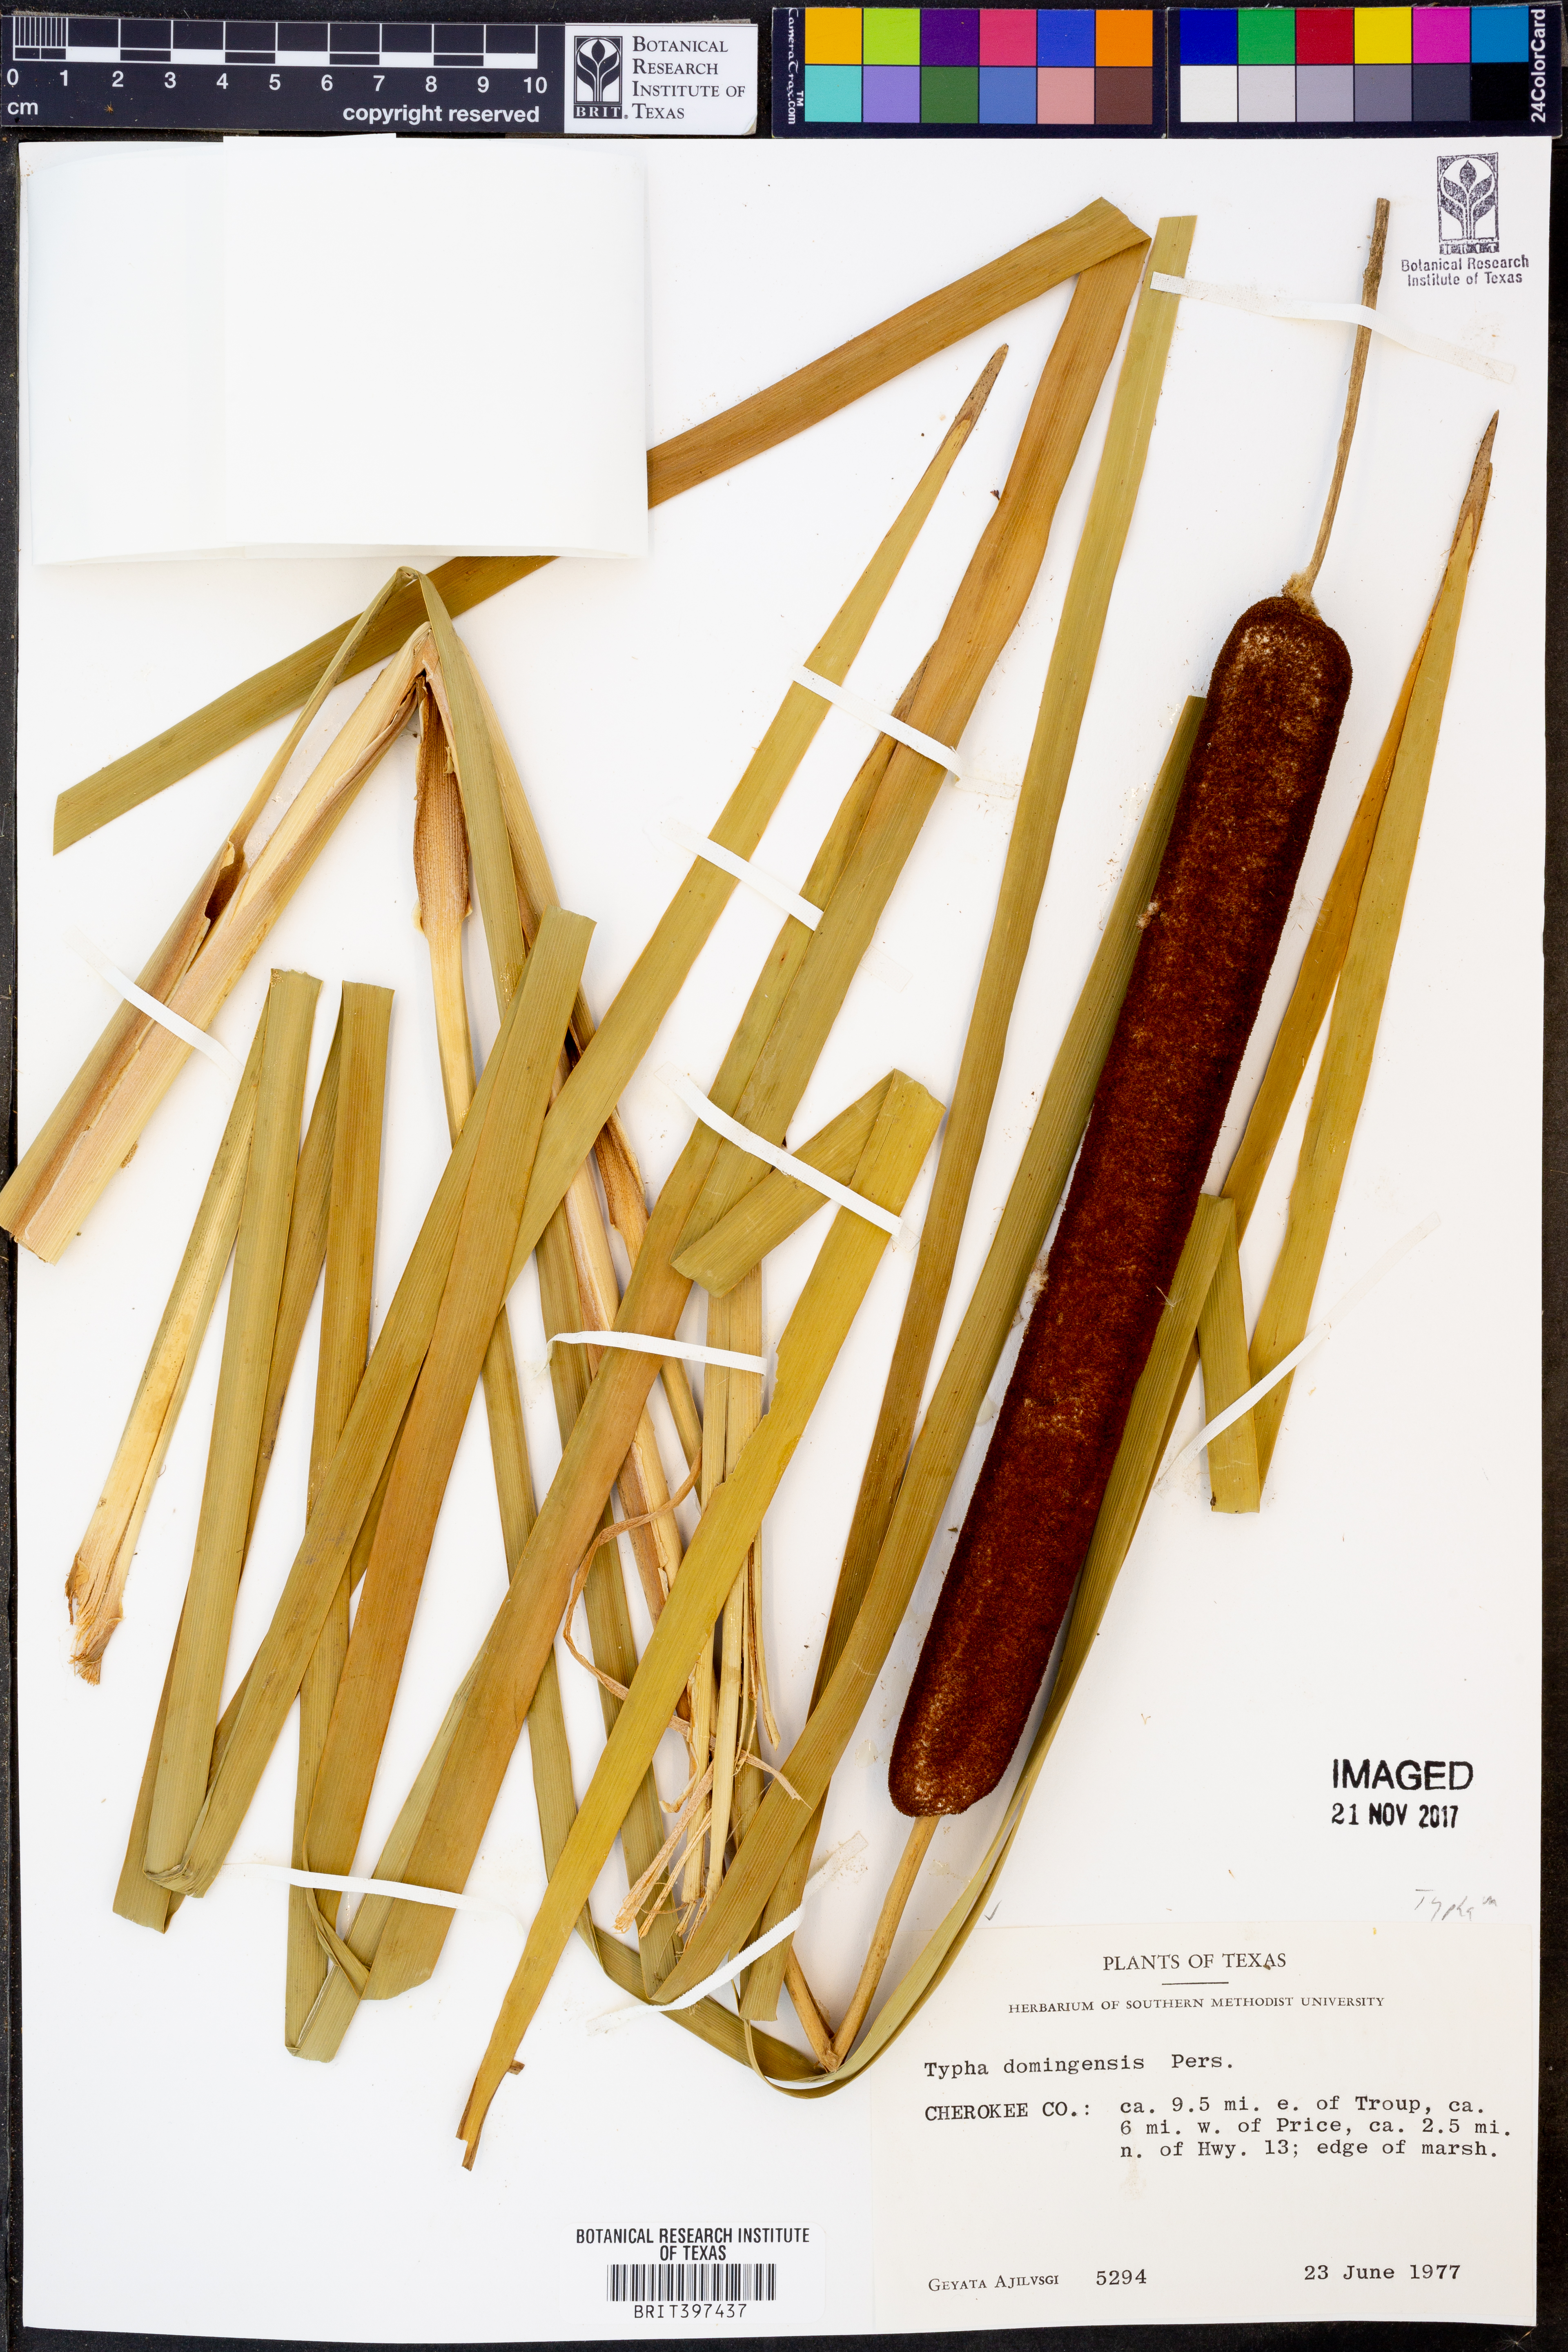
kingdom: Plantae
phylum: Tracheophyta
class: Liliopsida
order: Poales
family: Typhaceae
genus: Typha
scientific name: Typha domingensis
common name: Southern cattail
